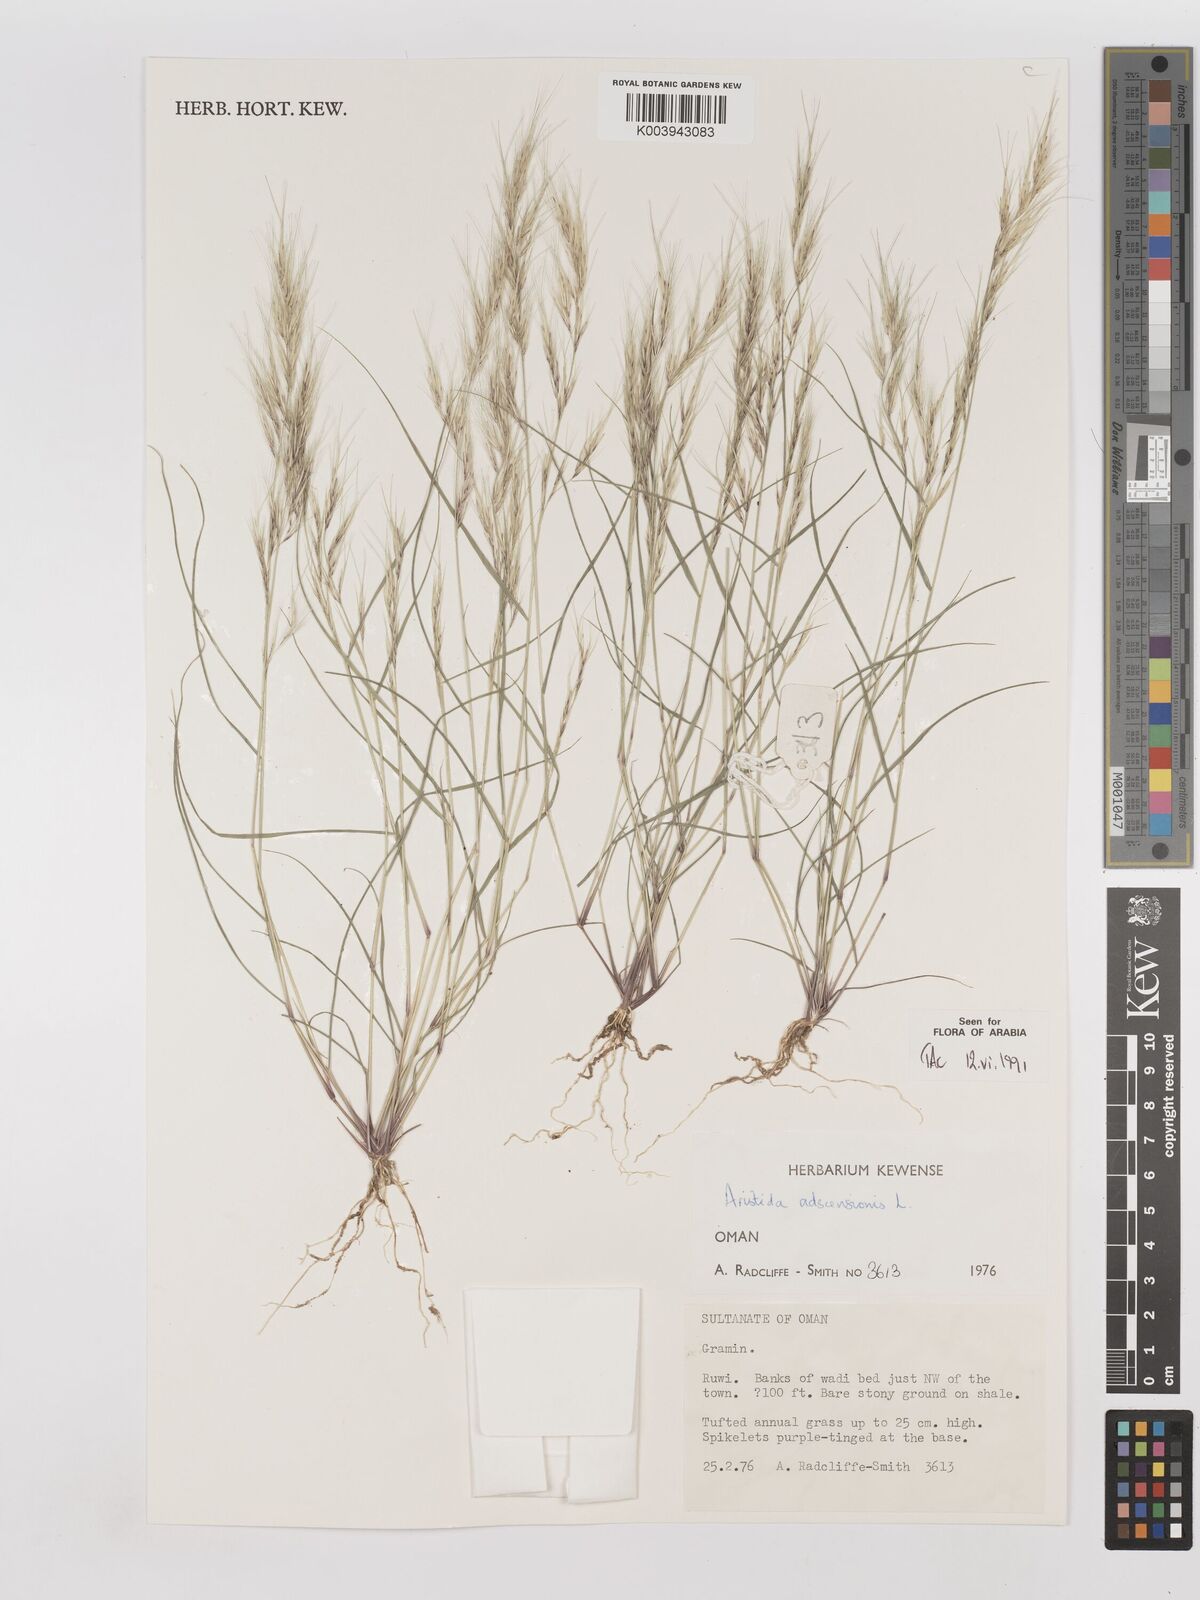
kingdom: Plantae
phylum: Tracheophyta
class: Liliopsida
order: Poales
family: Poaceae
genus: Aristida
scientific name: Aristida adscensionis
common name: Sixweeks threeawn
